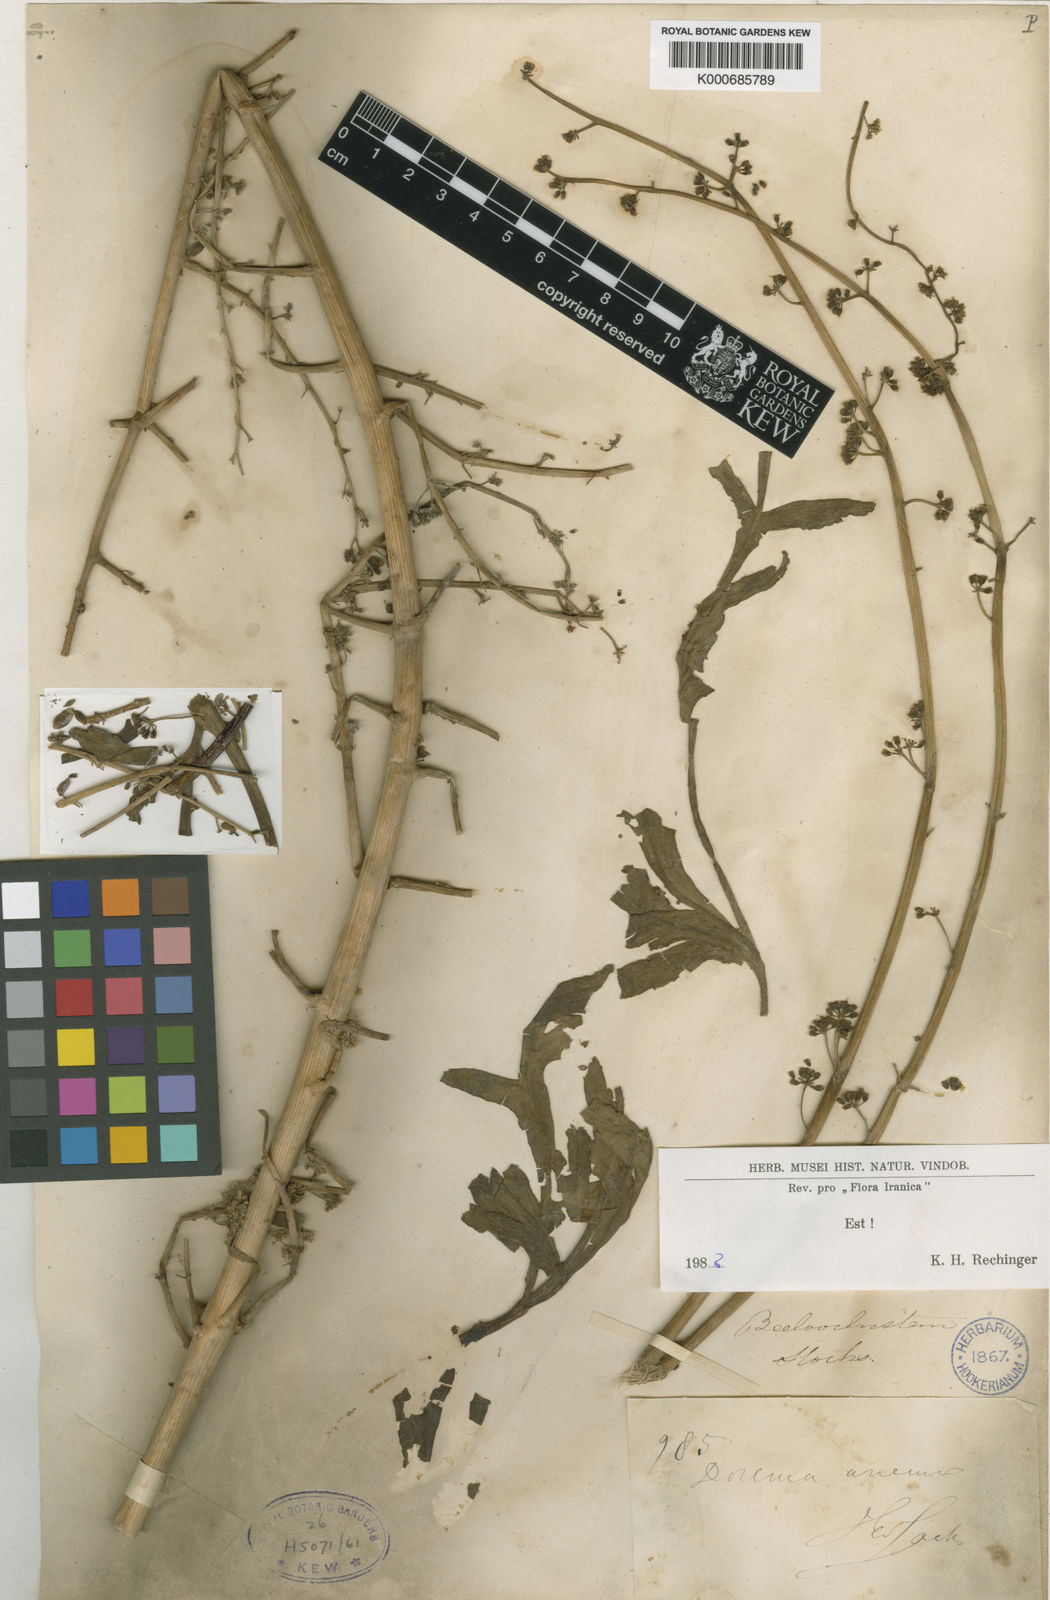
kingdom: Plantae
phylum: Tracheophyta
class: Magnoliopsida
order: Apiales
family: Apiaceae
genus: Ferula
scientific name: Ferula downieorum
